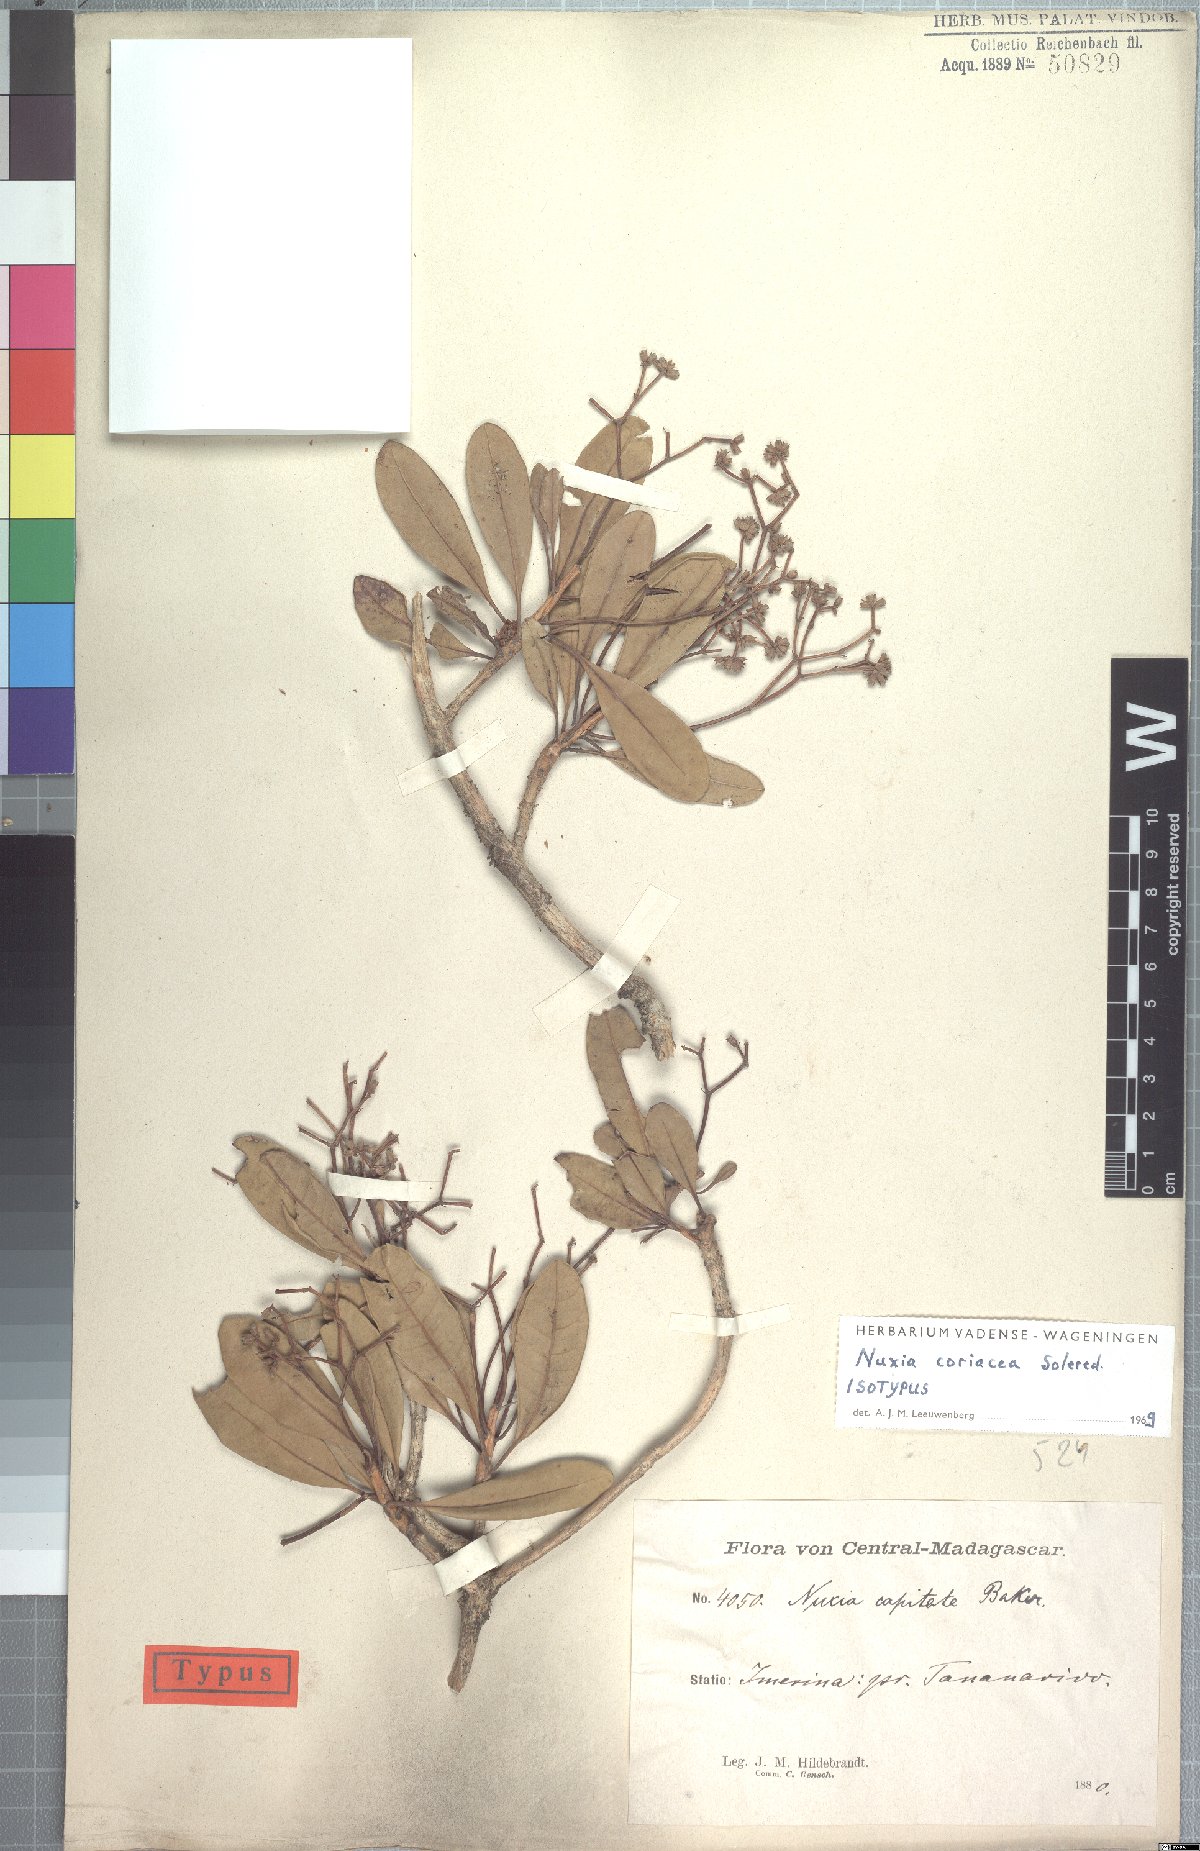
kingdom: Plantae
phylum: Tracheophyta
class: Magnoliopsida
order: Lamiales
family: Stilbaceae
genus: Nuxia
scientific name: Nuxia coriacea
